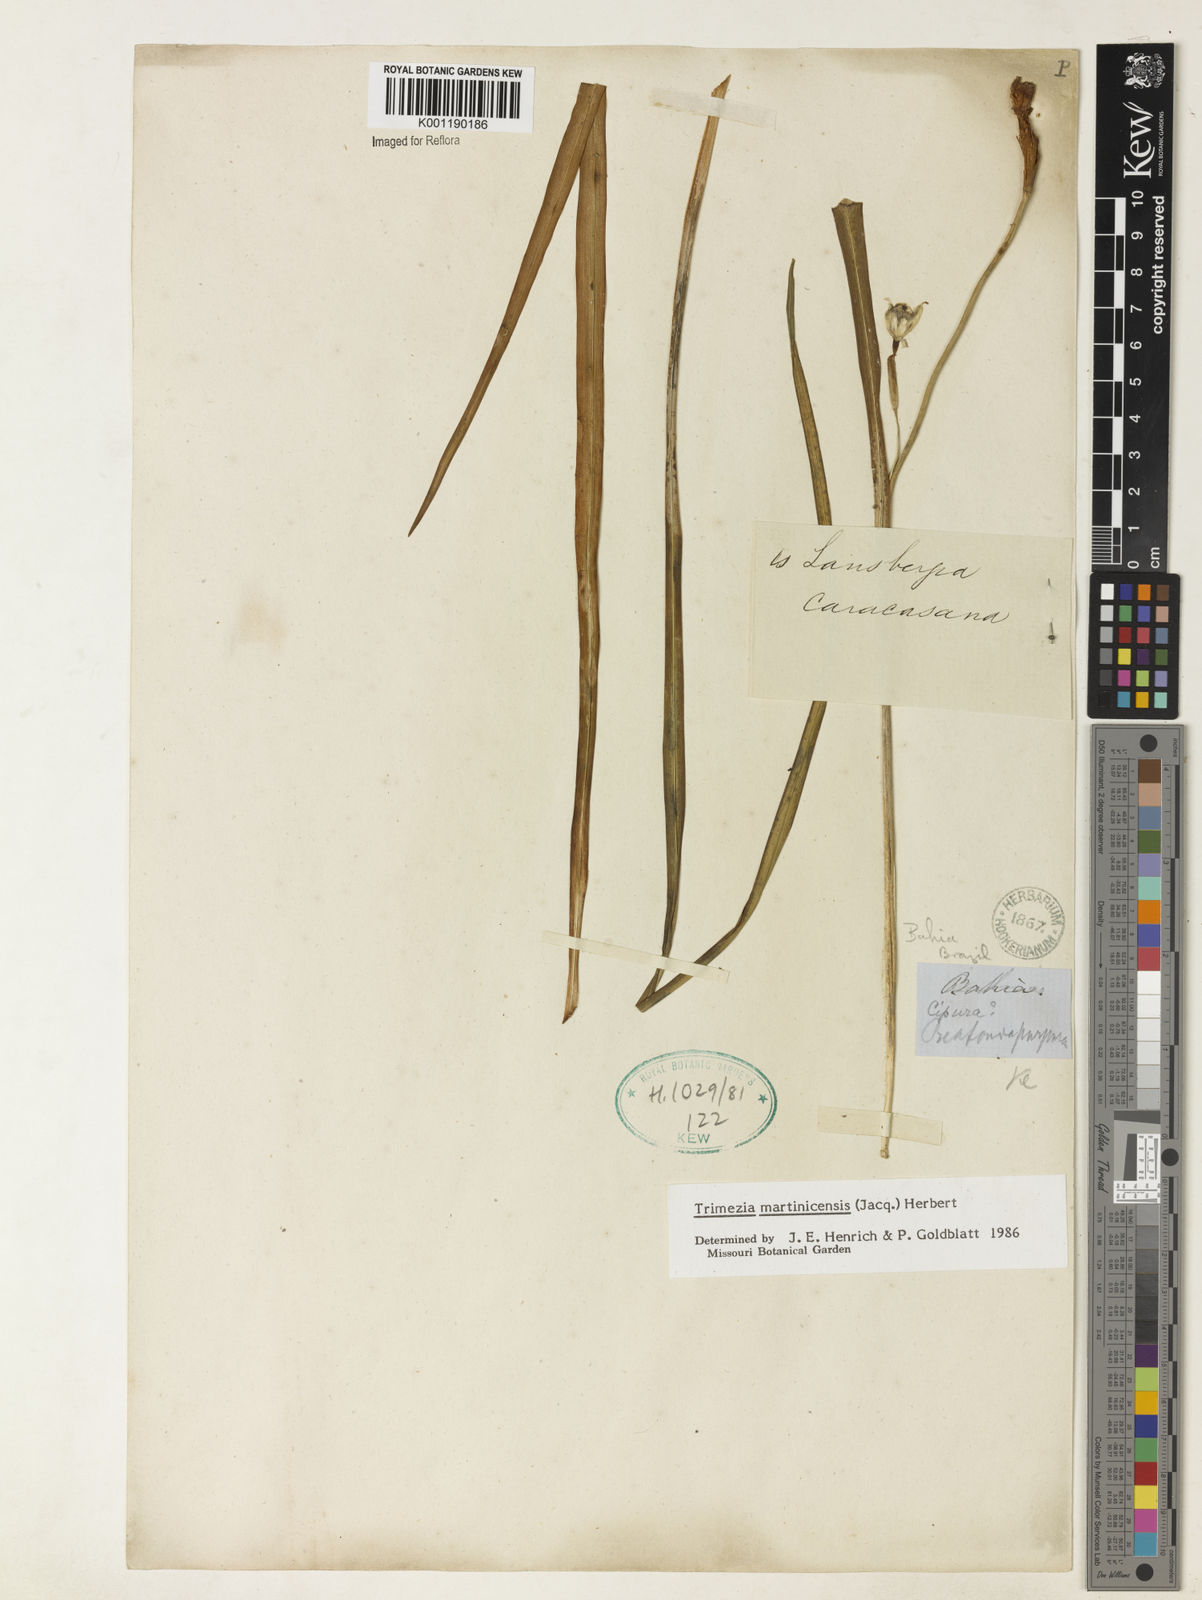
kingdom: Plantae
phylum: Tracheophyta
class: Liliopsida
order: Asparagales
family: Iridaceae
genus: Trimezia
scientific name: Trimezia martinicensis
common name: Martinique trimezia
